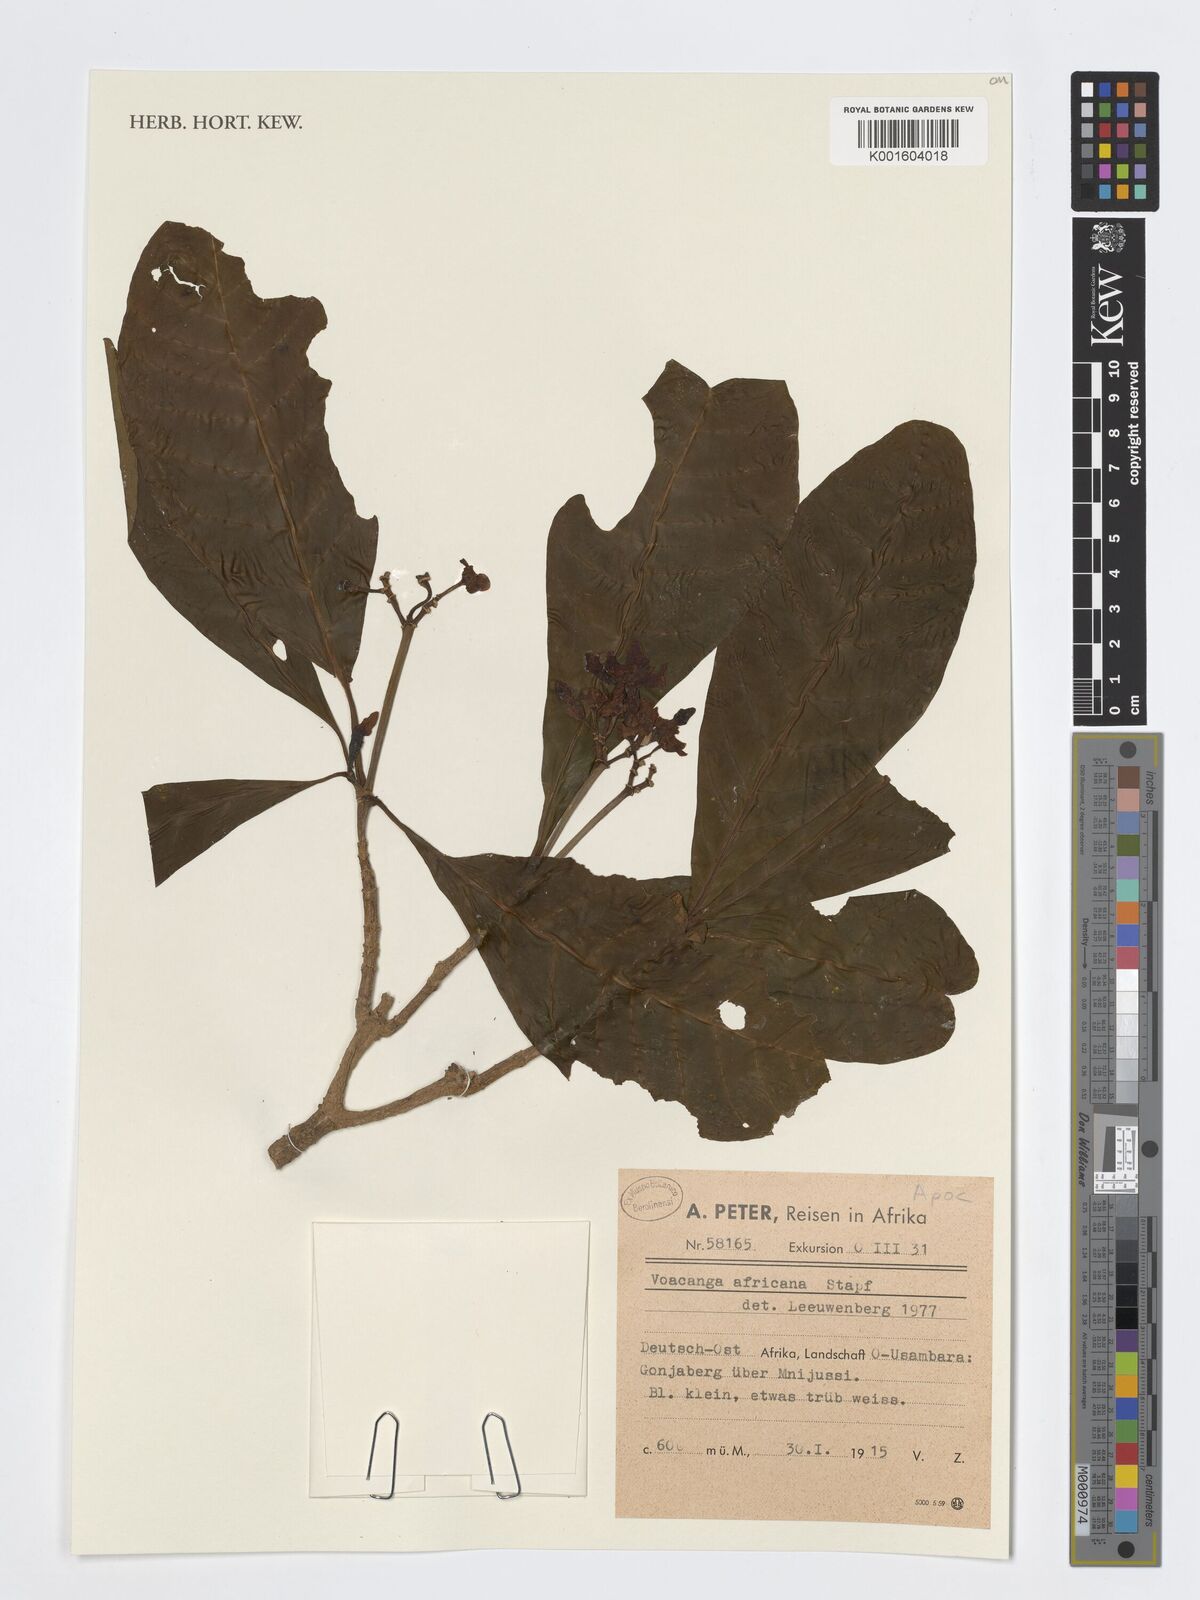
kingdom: Plantae
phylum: Tracheophyta
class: Magnoliopsida
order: Gentianales
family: Apocynaceae
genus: Voacanga
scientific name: Voacanga africana
